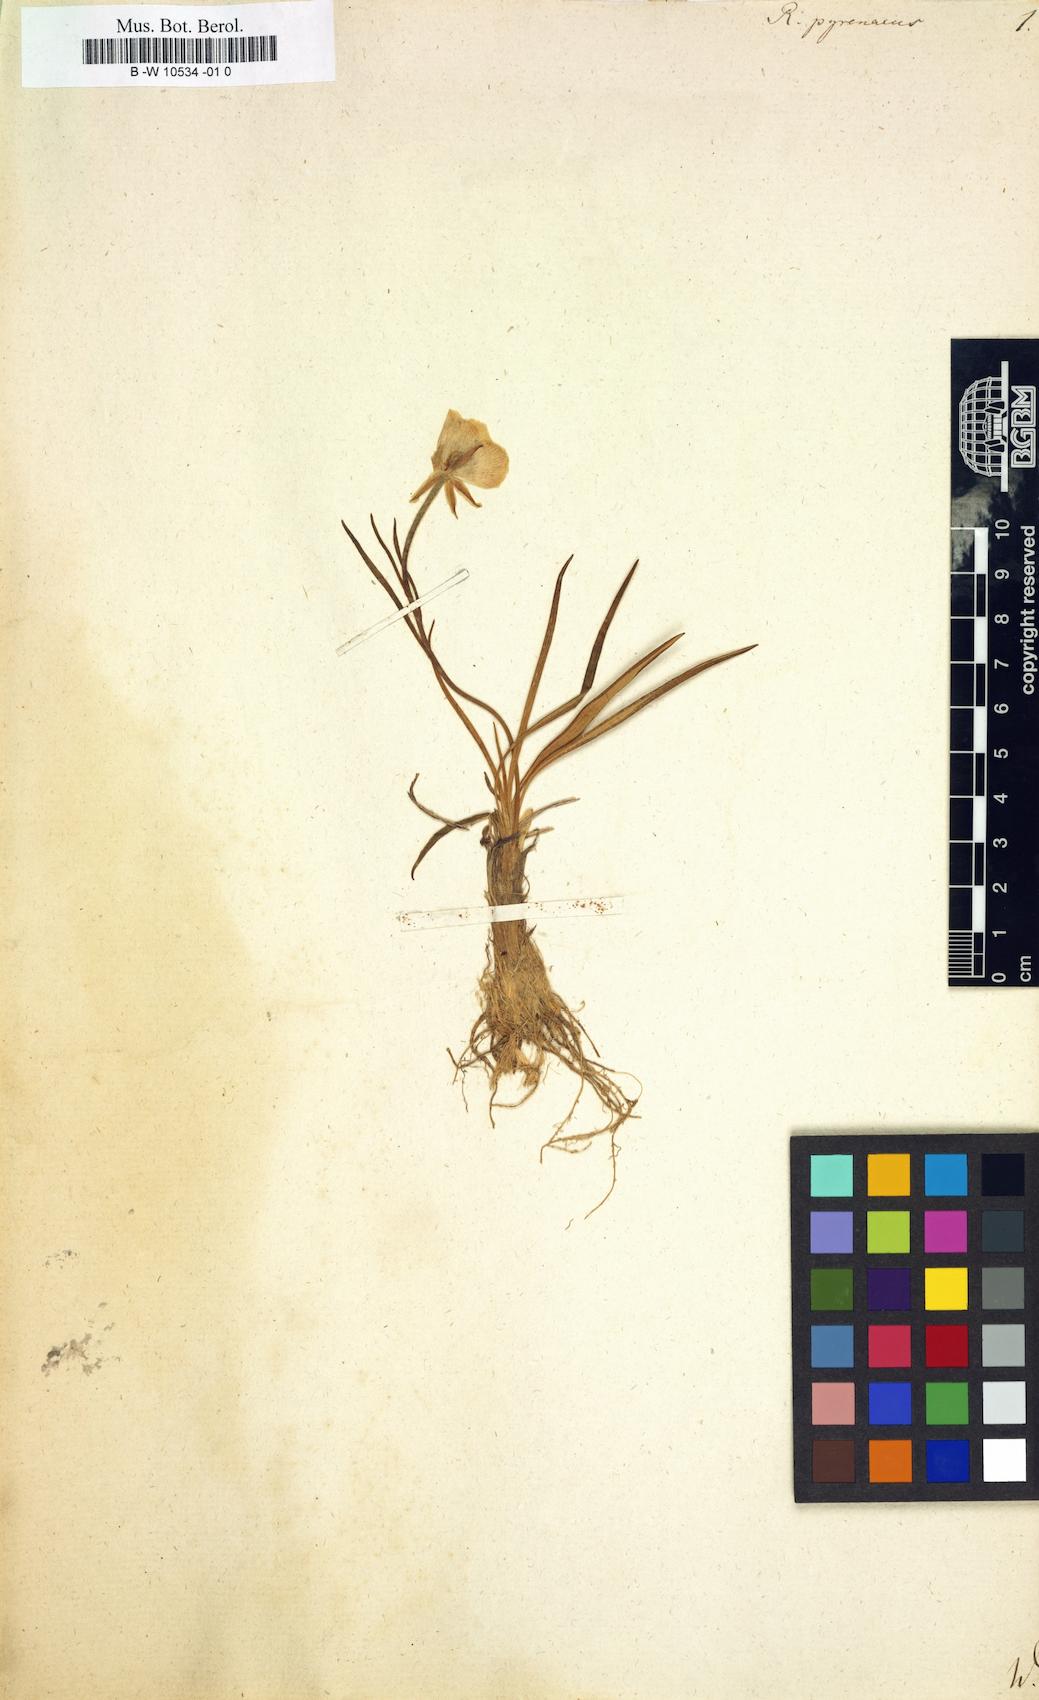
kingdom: Plantae
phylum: Tracheophyta
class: Magnoliopsida
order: Ranunculales
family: Ranunculaceae
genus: Ranunculus
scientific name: Ranunculus pyrenaeus
